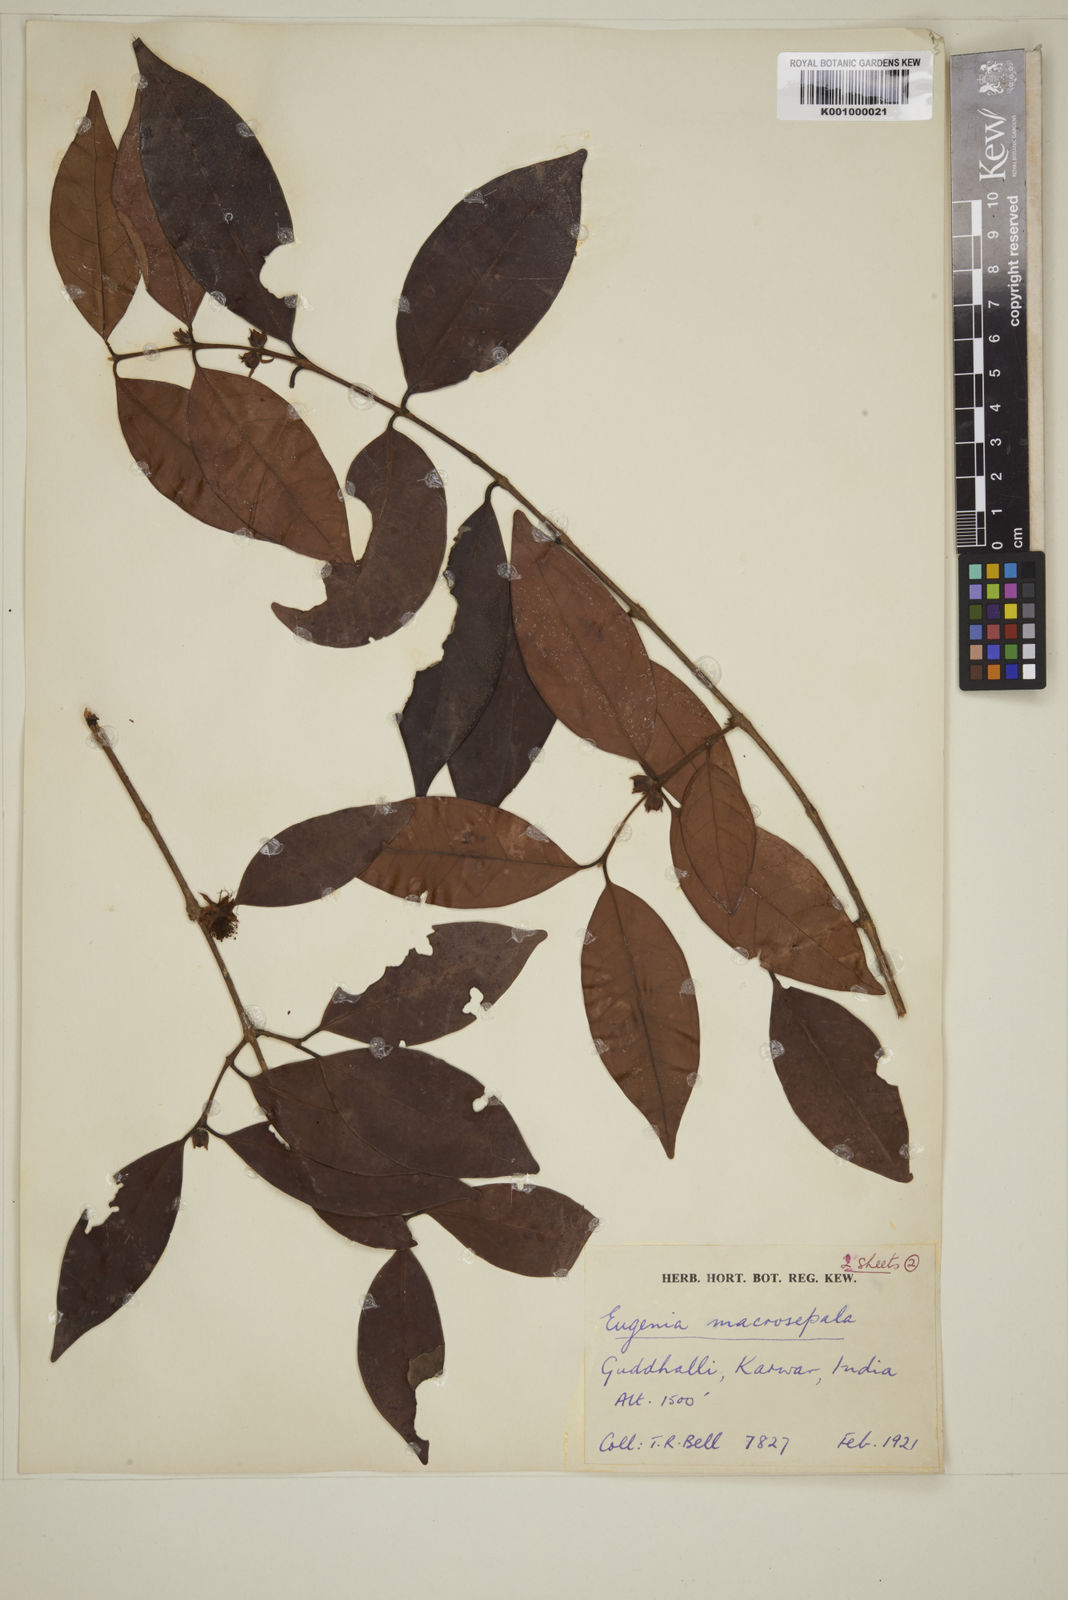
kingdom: Plantae
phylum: Tracheophyta
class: Magnoliopsida
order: Myrtales
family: Myrtaceae
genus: Eugenia
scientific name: Eugenia macrosepala
